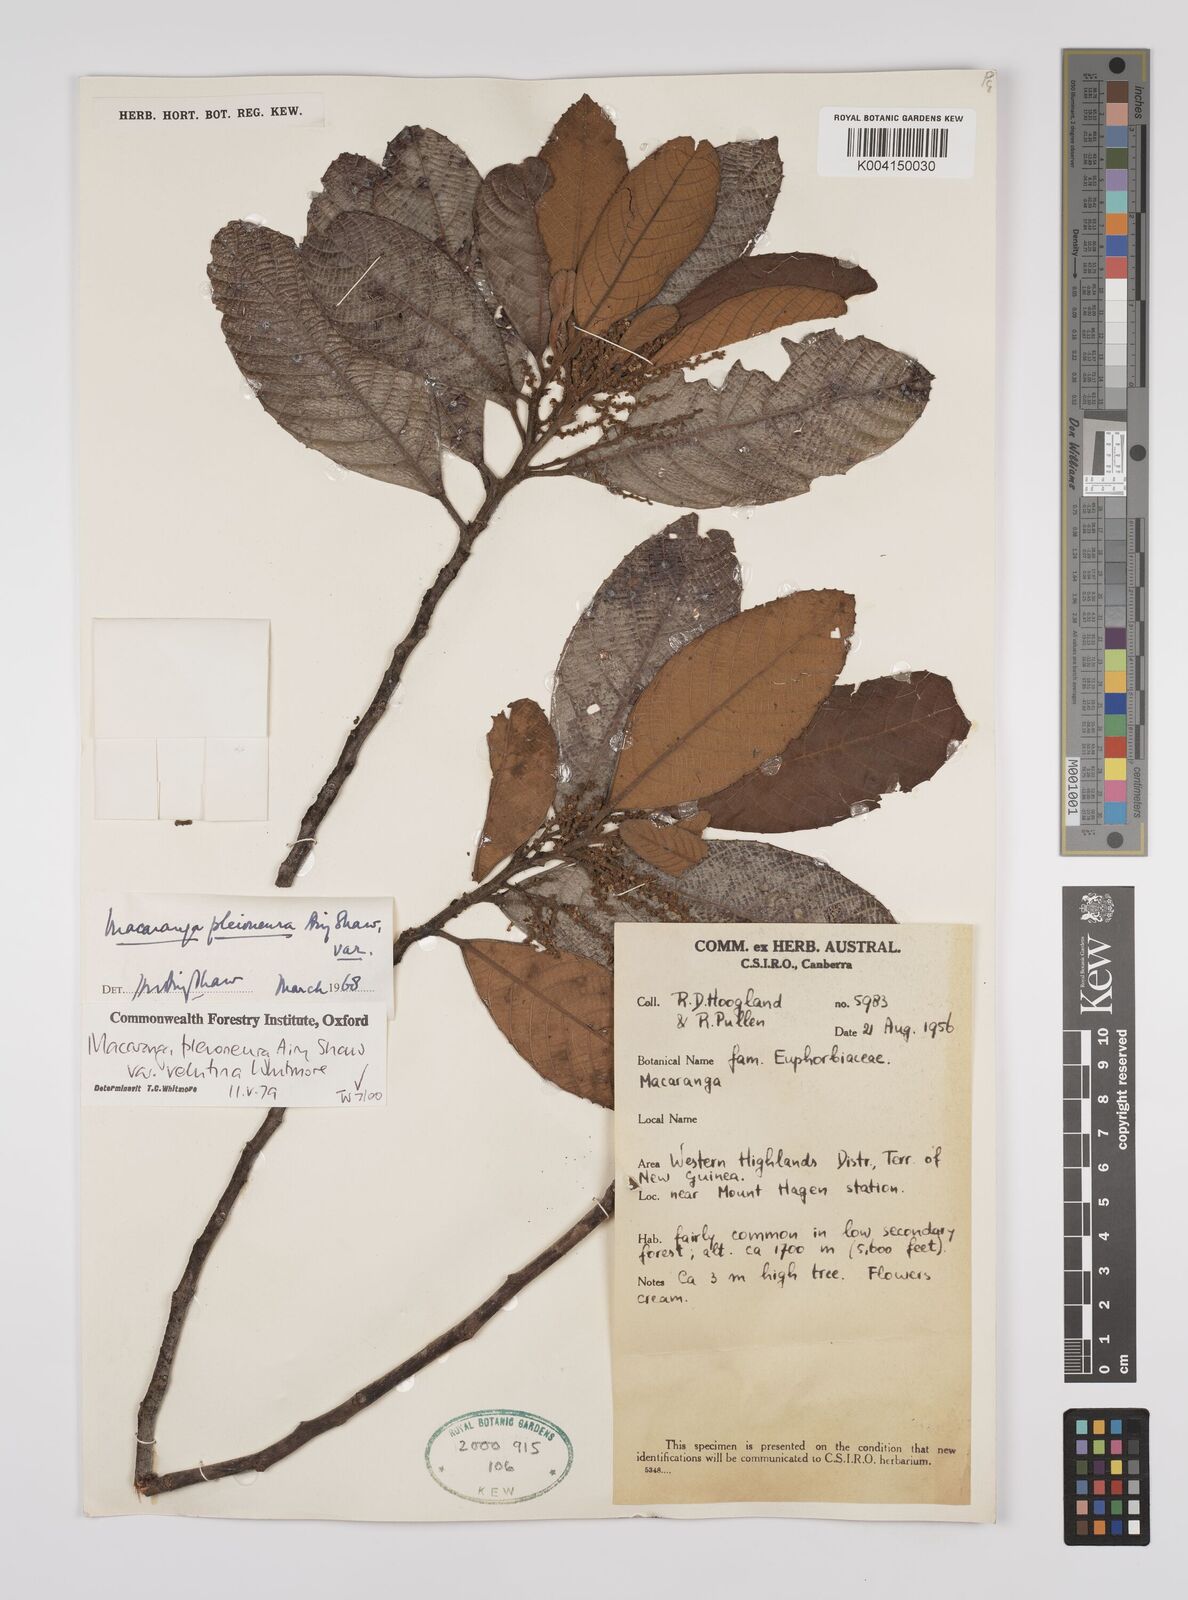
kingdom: Plantae
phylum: Tracheophyta
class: Magnoliopsida
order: Malpighiales
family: Euphorbiaceae
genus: Macaranga
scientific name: Macaranga pleioneura
